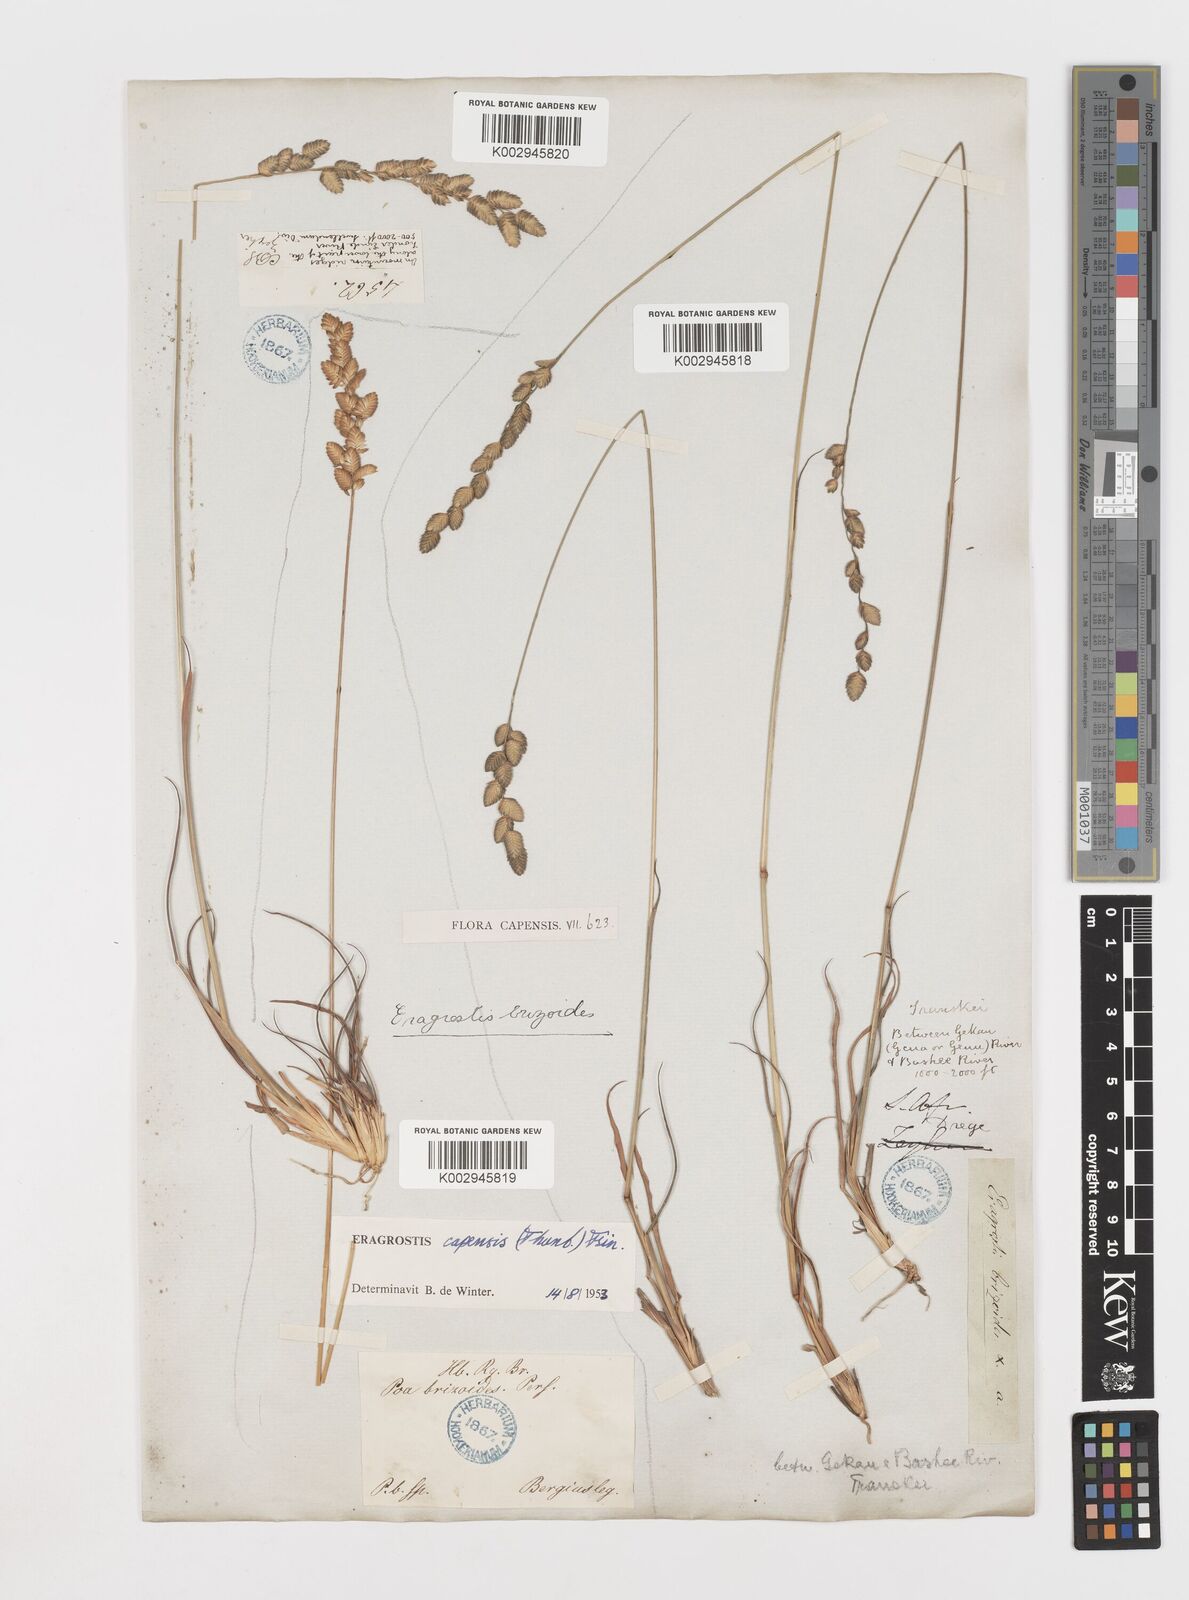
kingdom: Plantae
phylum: Tracheophyta
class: Liliopsida
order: Poales
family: Poaceae
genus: Eragrostis
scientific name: Eragrostis capensis
